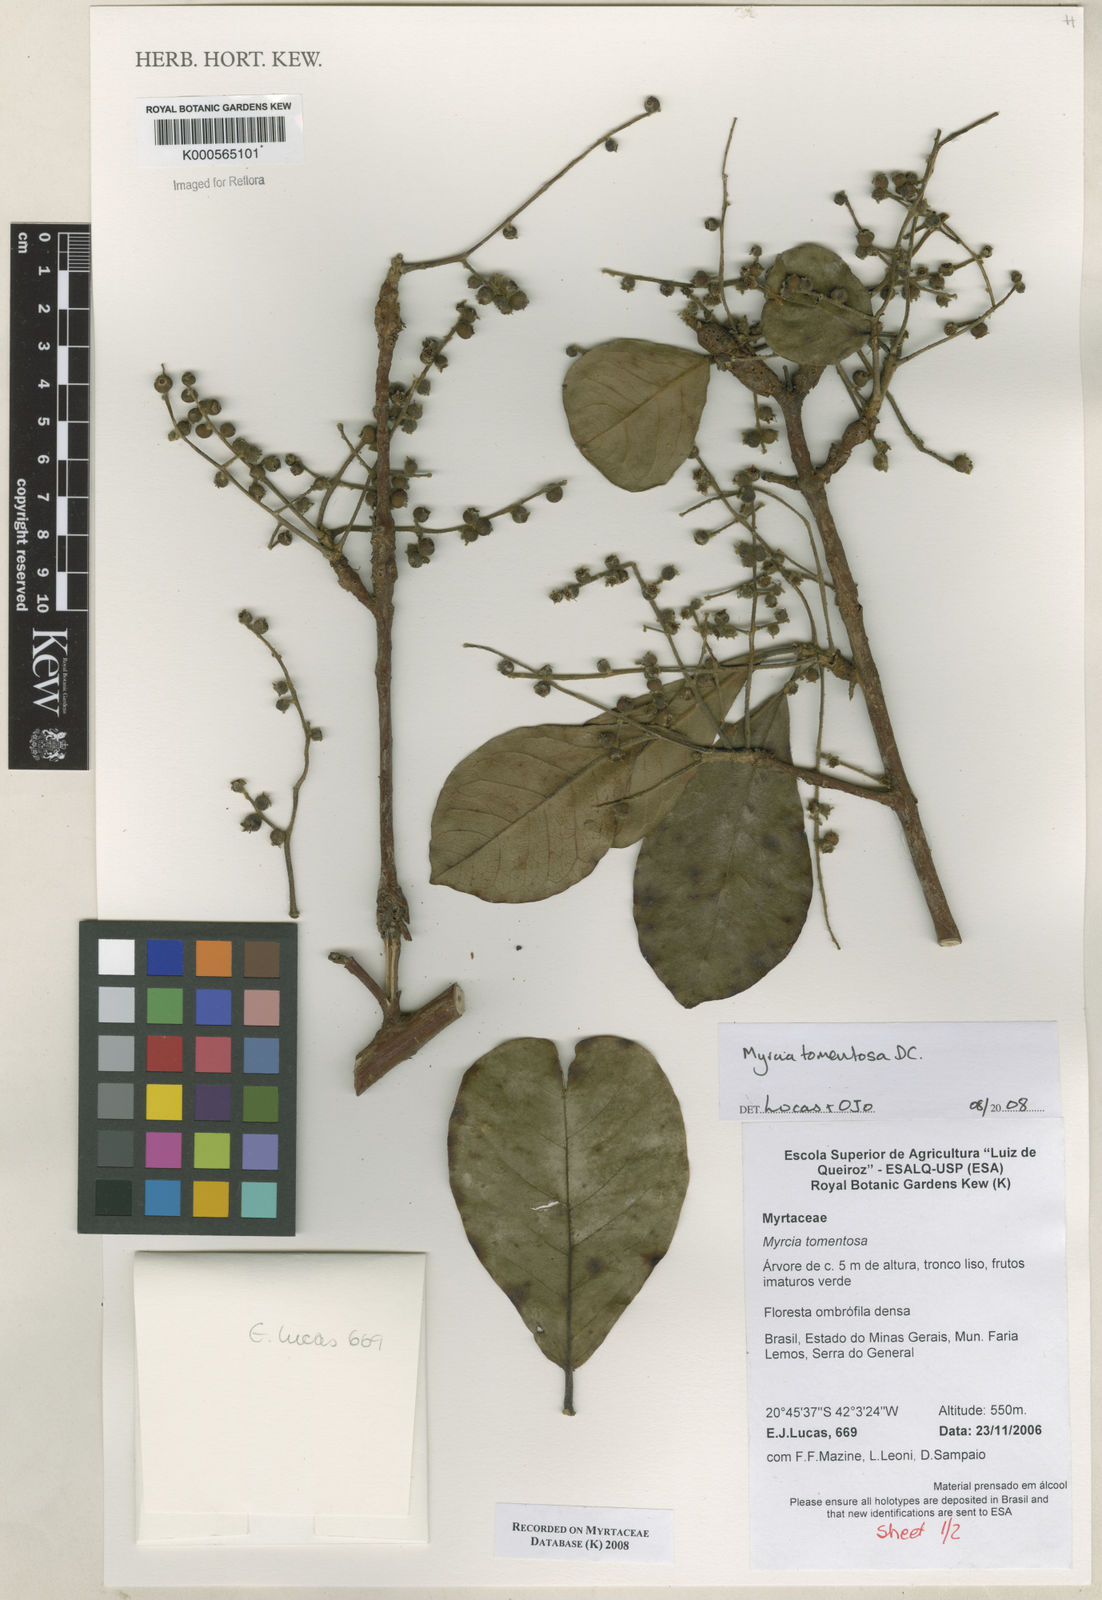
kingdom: Plantae
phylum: Tracheophyta
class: Magnoliopsida
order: Myrtales
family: Myrtaceae
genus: Myrcia
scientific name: Myrcia tomentosa
